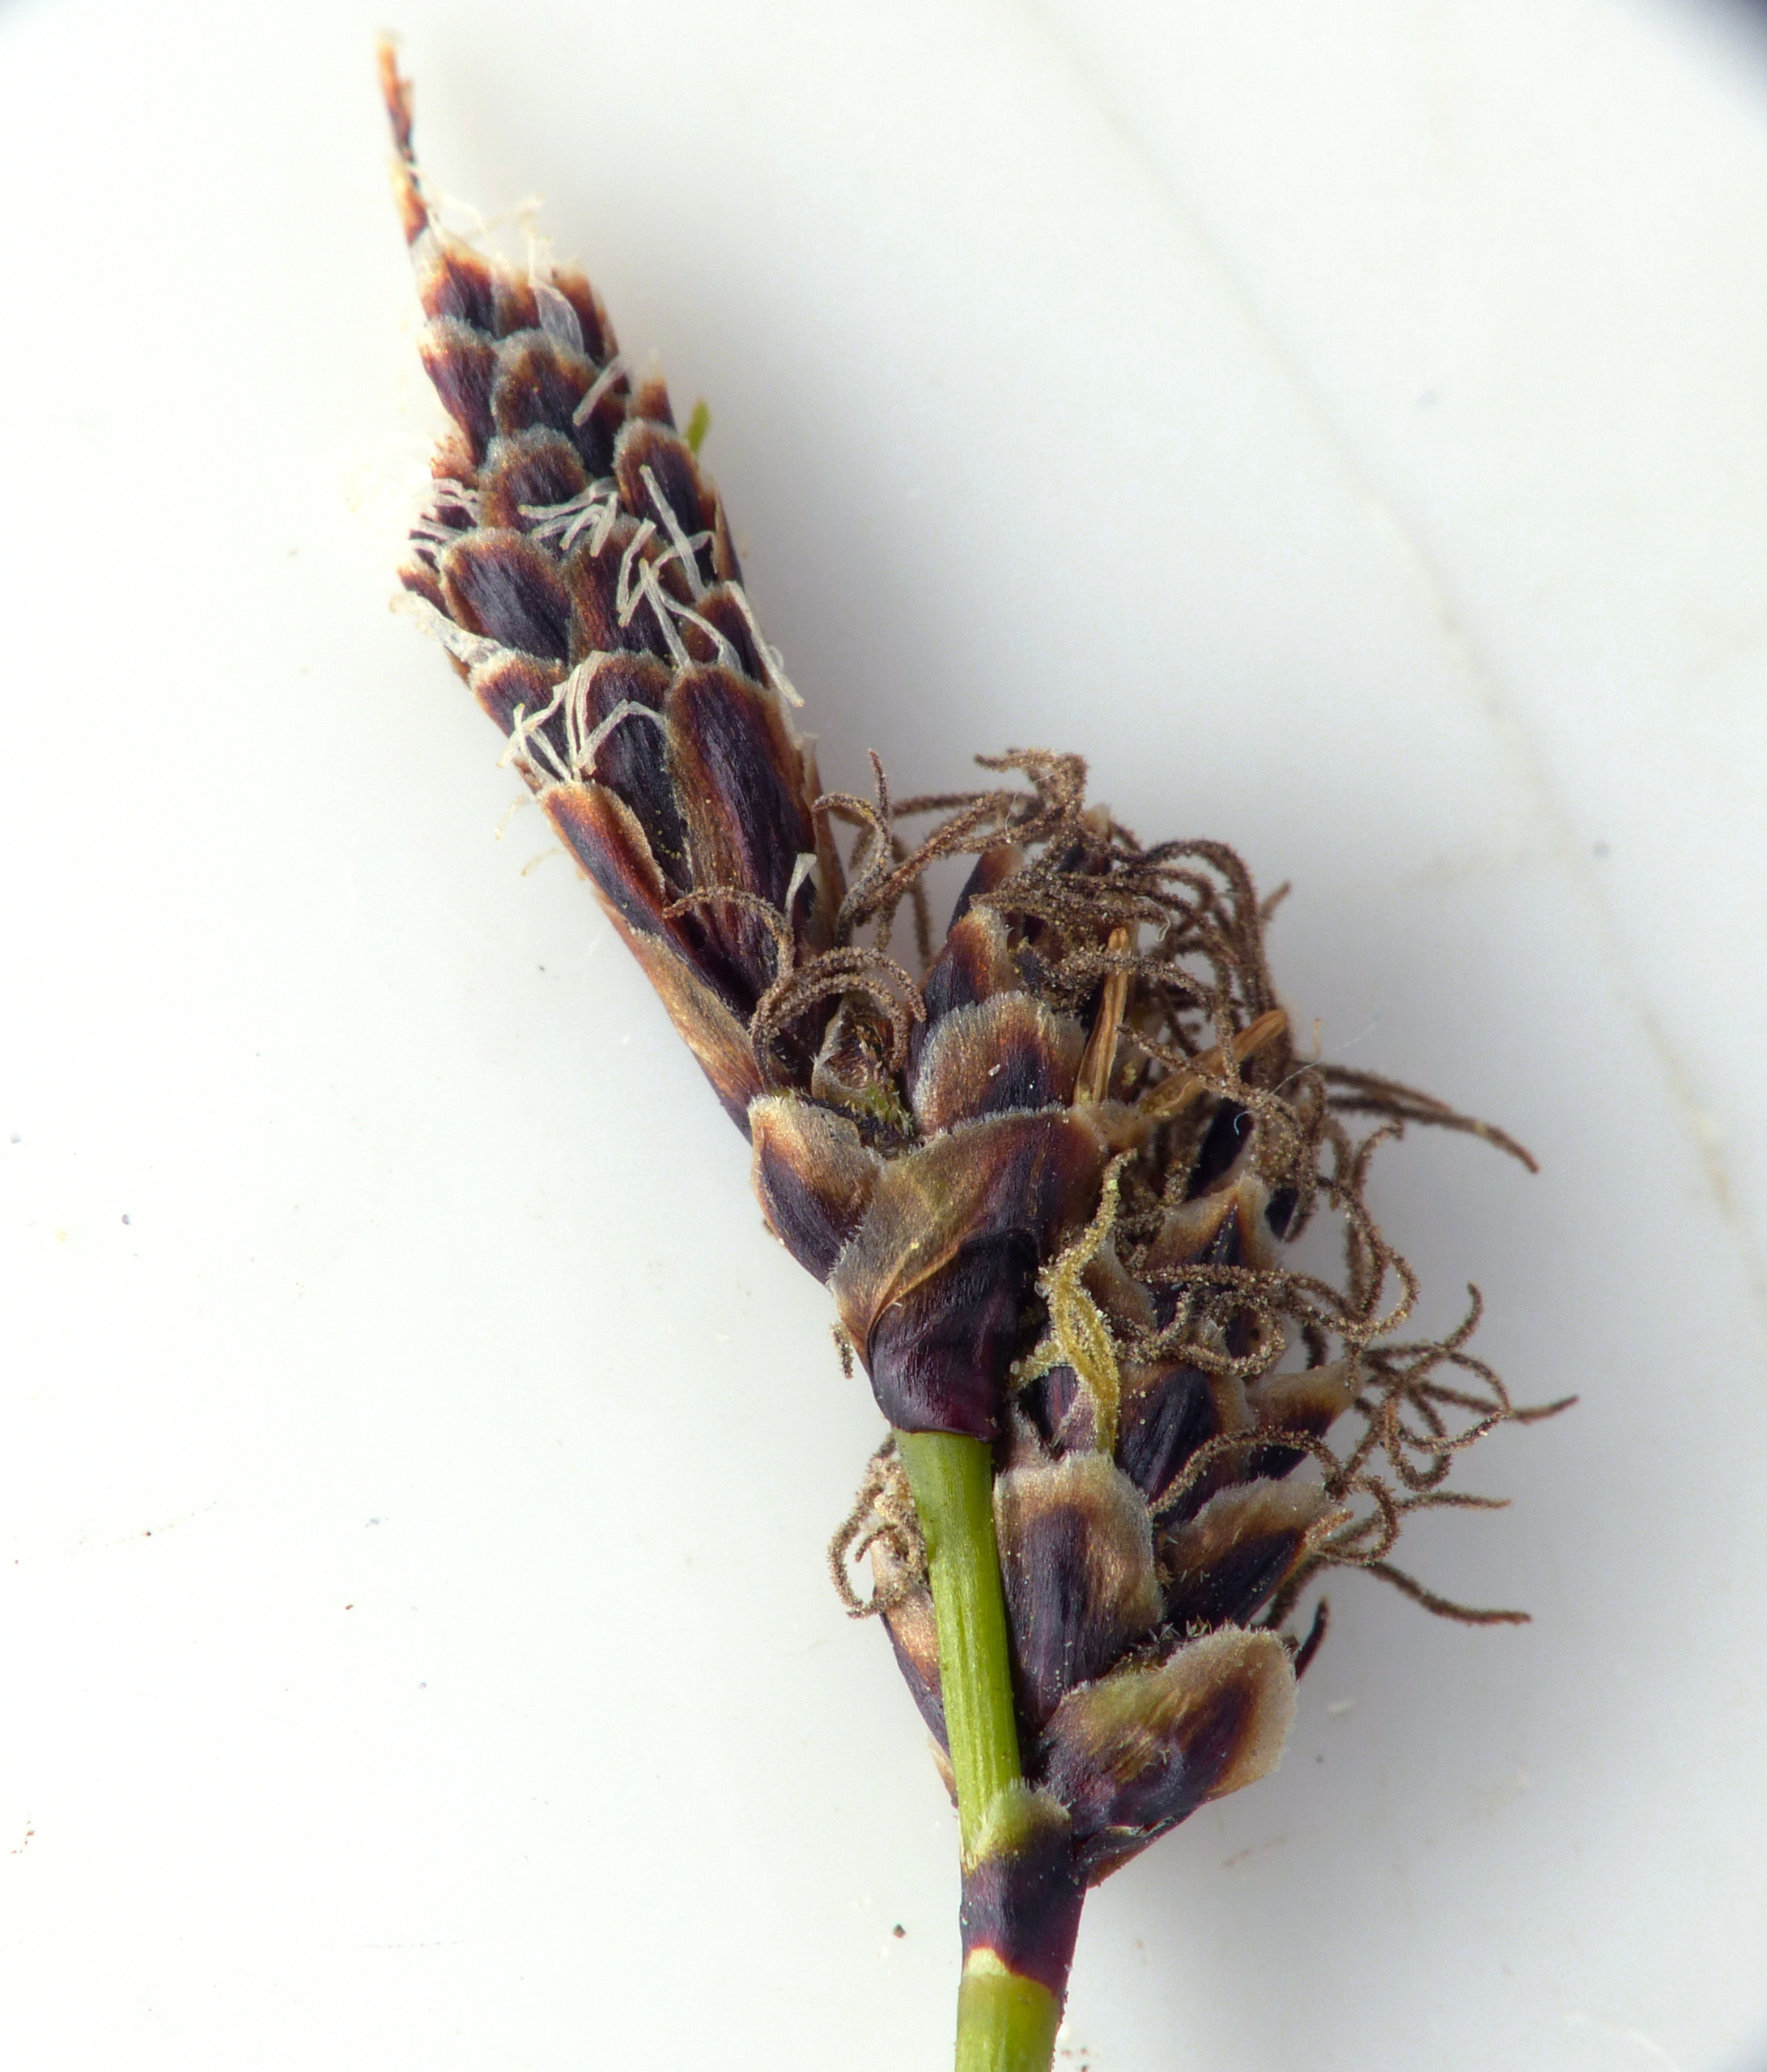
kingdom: Plantae
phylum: Tracheophyta
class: Liliopsida
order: Poales
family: Cyperaceae
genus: Carex
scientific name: Carex ericetorum
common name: Lyng-star
